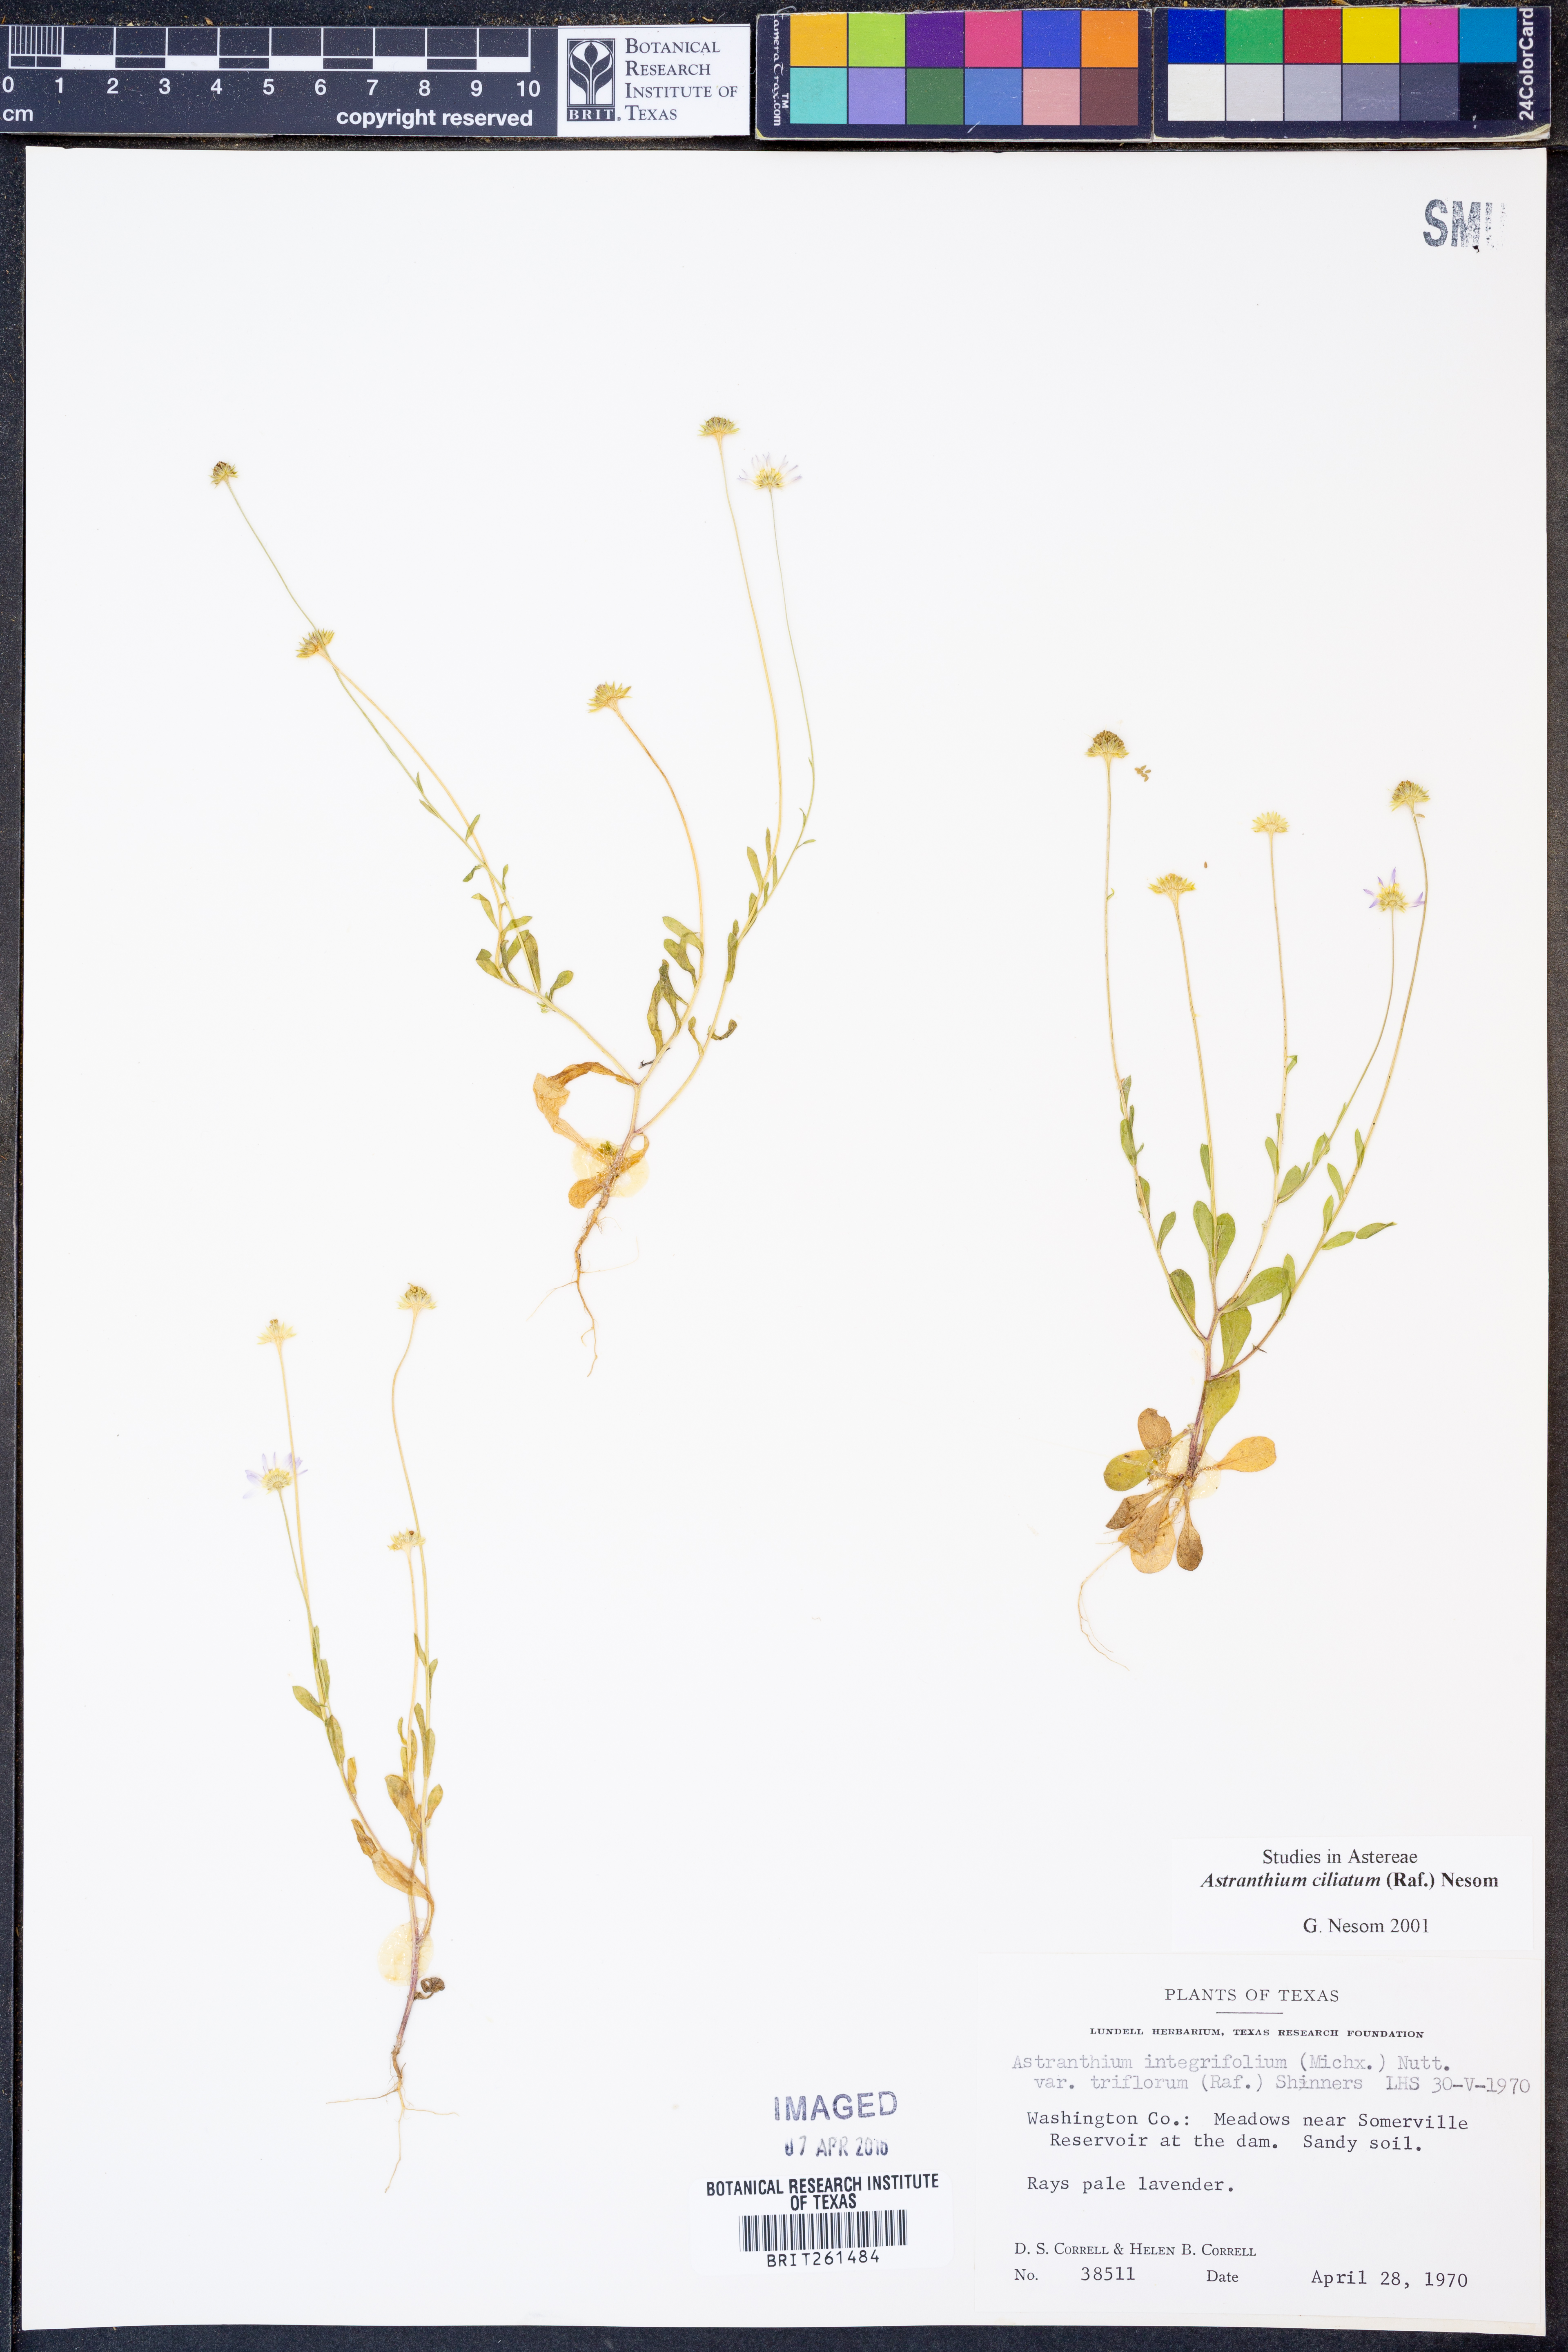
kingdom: Plantae
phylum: Tracheophyta
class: Magnoliopsida
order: Asterales
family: Asteraceae
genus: Astranthium
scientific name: Astranthium ciliatum
